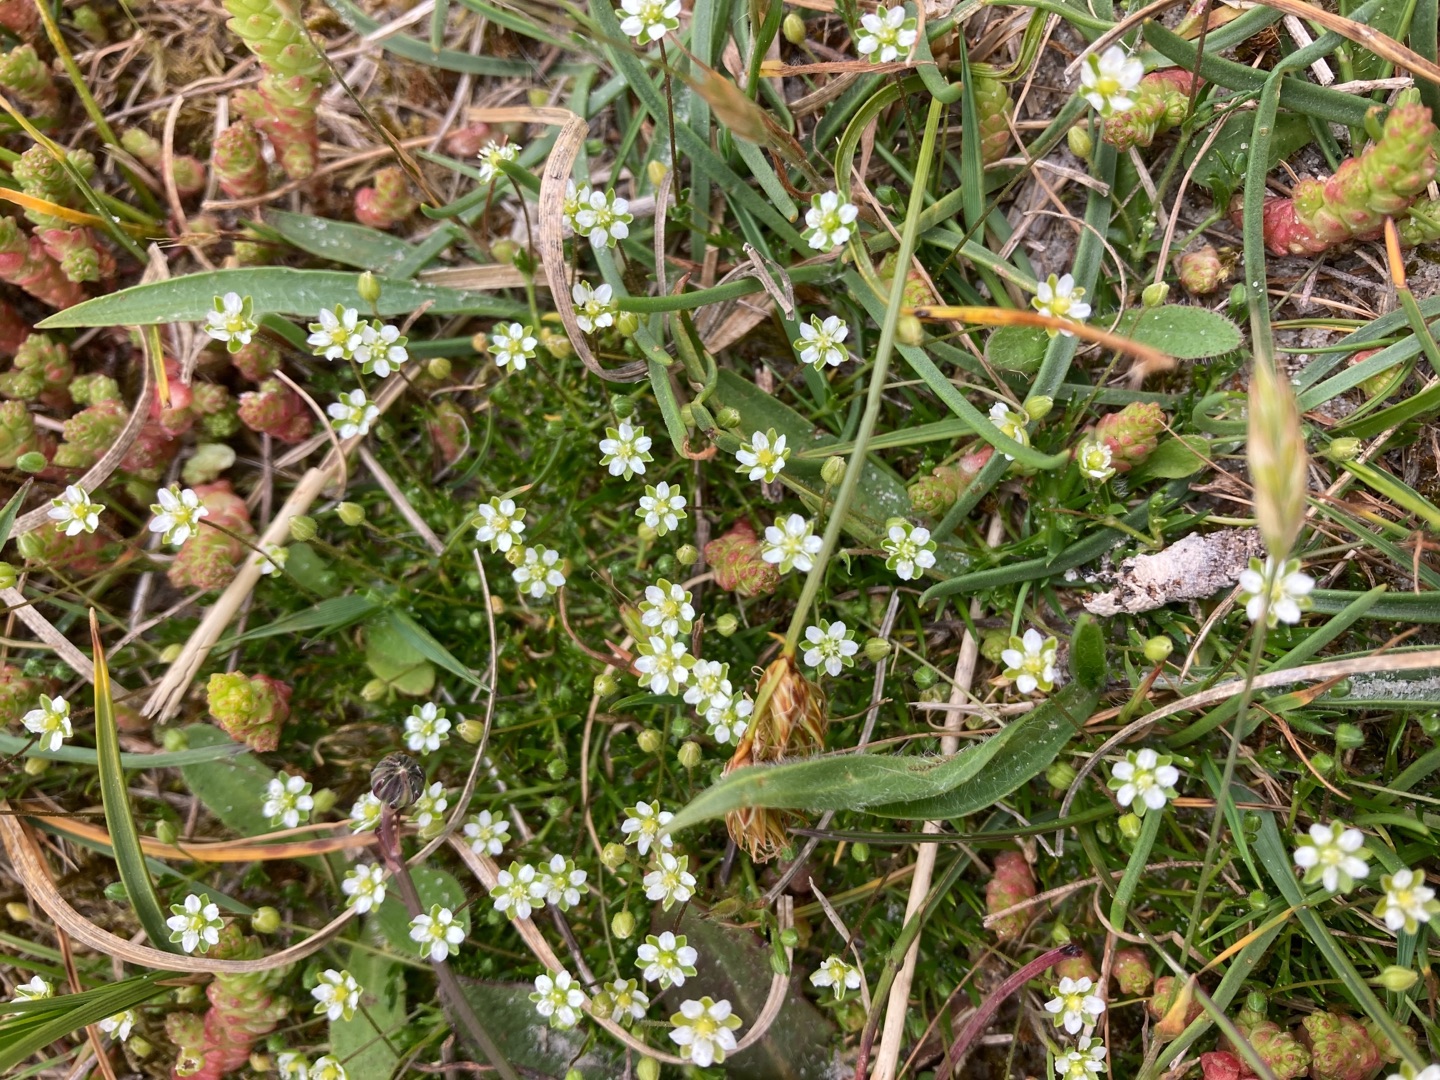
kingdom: Plantae
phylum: Tracheophyta
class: Magnoliopsida
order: Caryophyllales
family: Caryophyllaceae
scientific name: Caryophyllaceae
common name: Syl-firling
